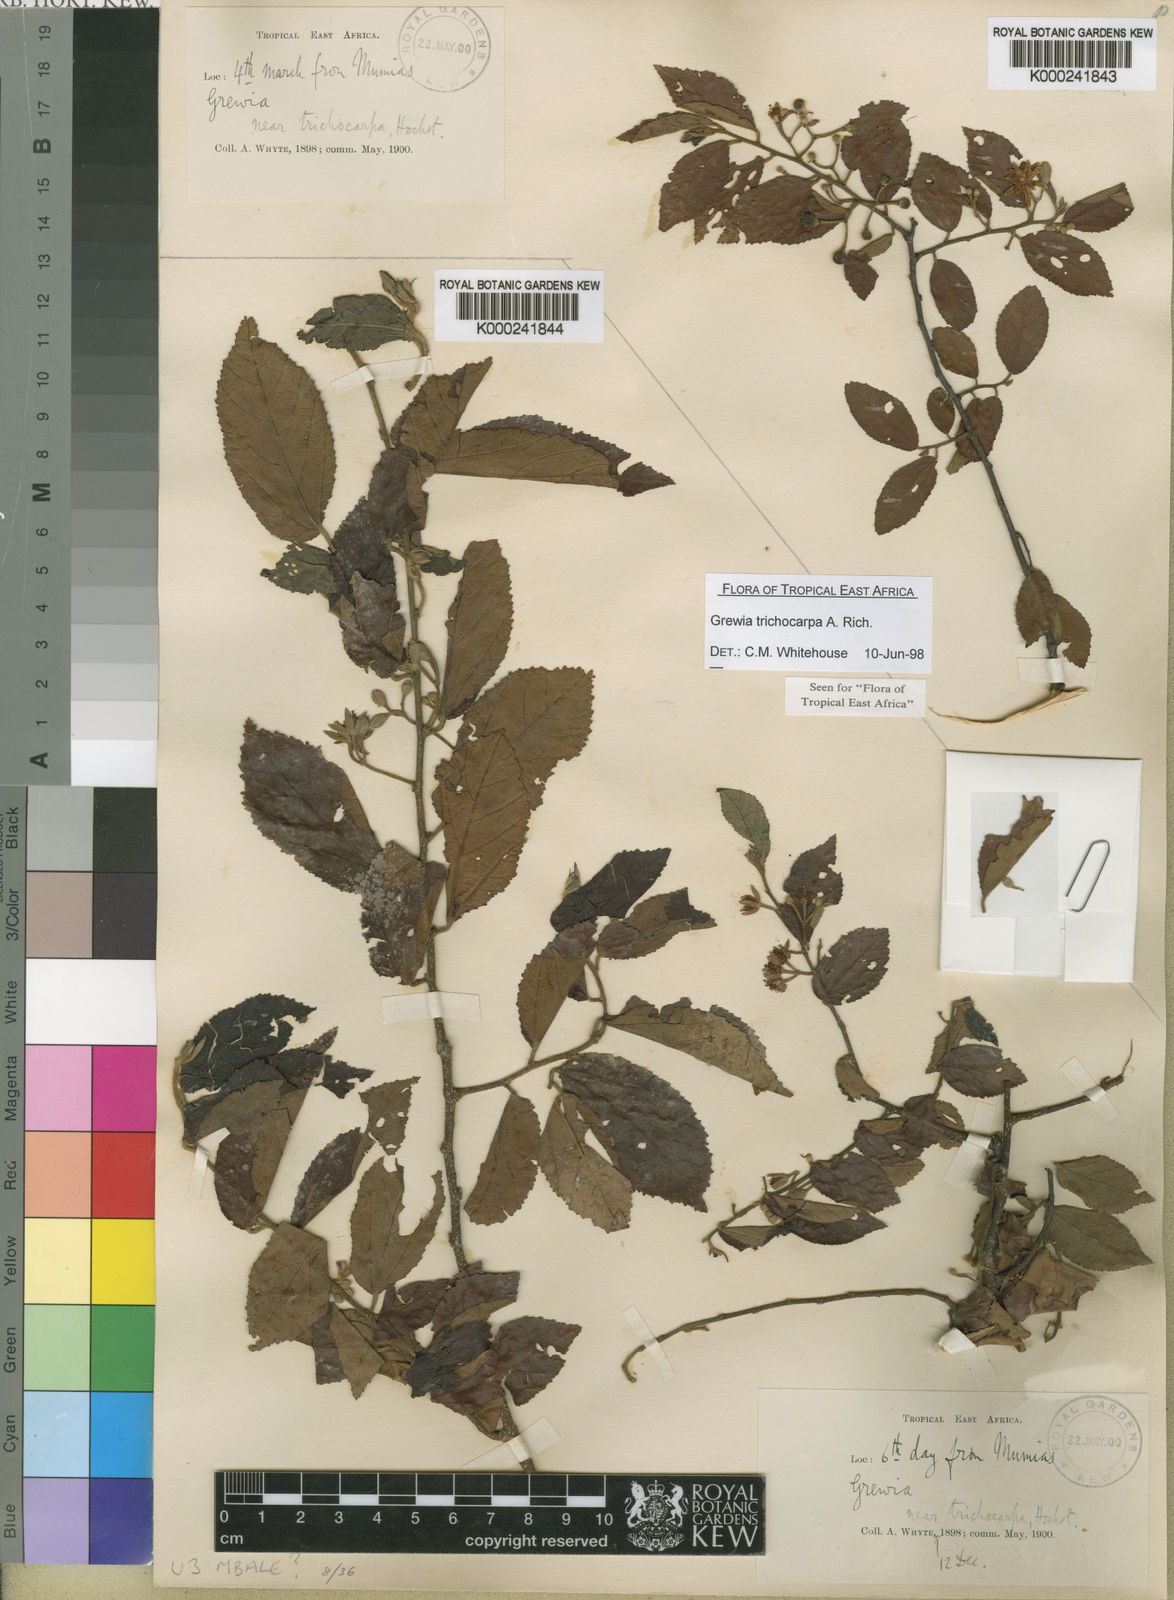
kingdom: Plantae
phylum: Tracheophyta
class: Magnoliopsida
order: Malvales
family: Malvaceae
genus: Grewia
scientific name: Grewia trichocarpa
